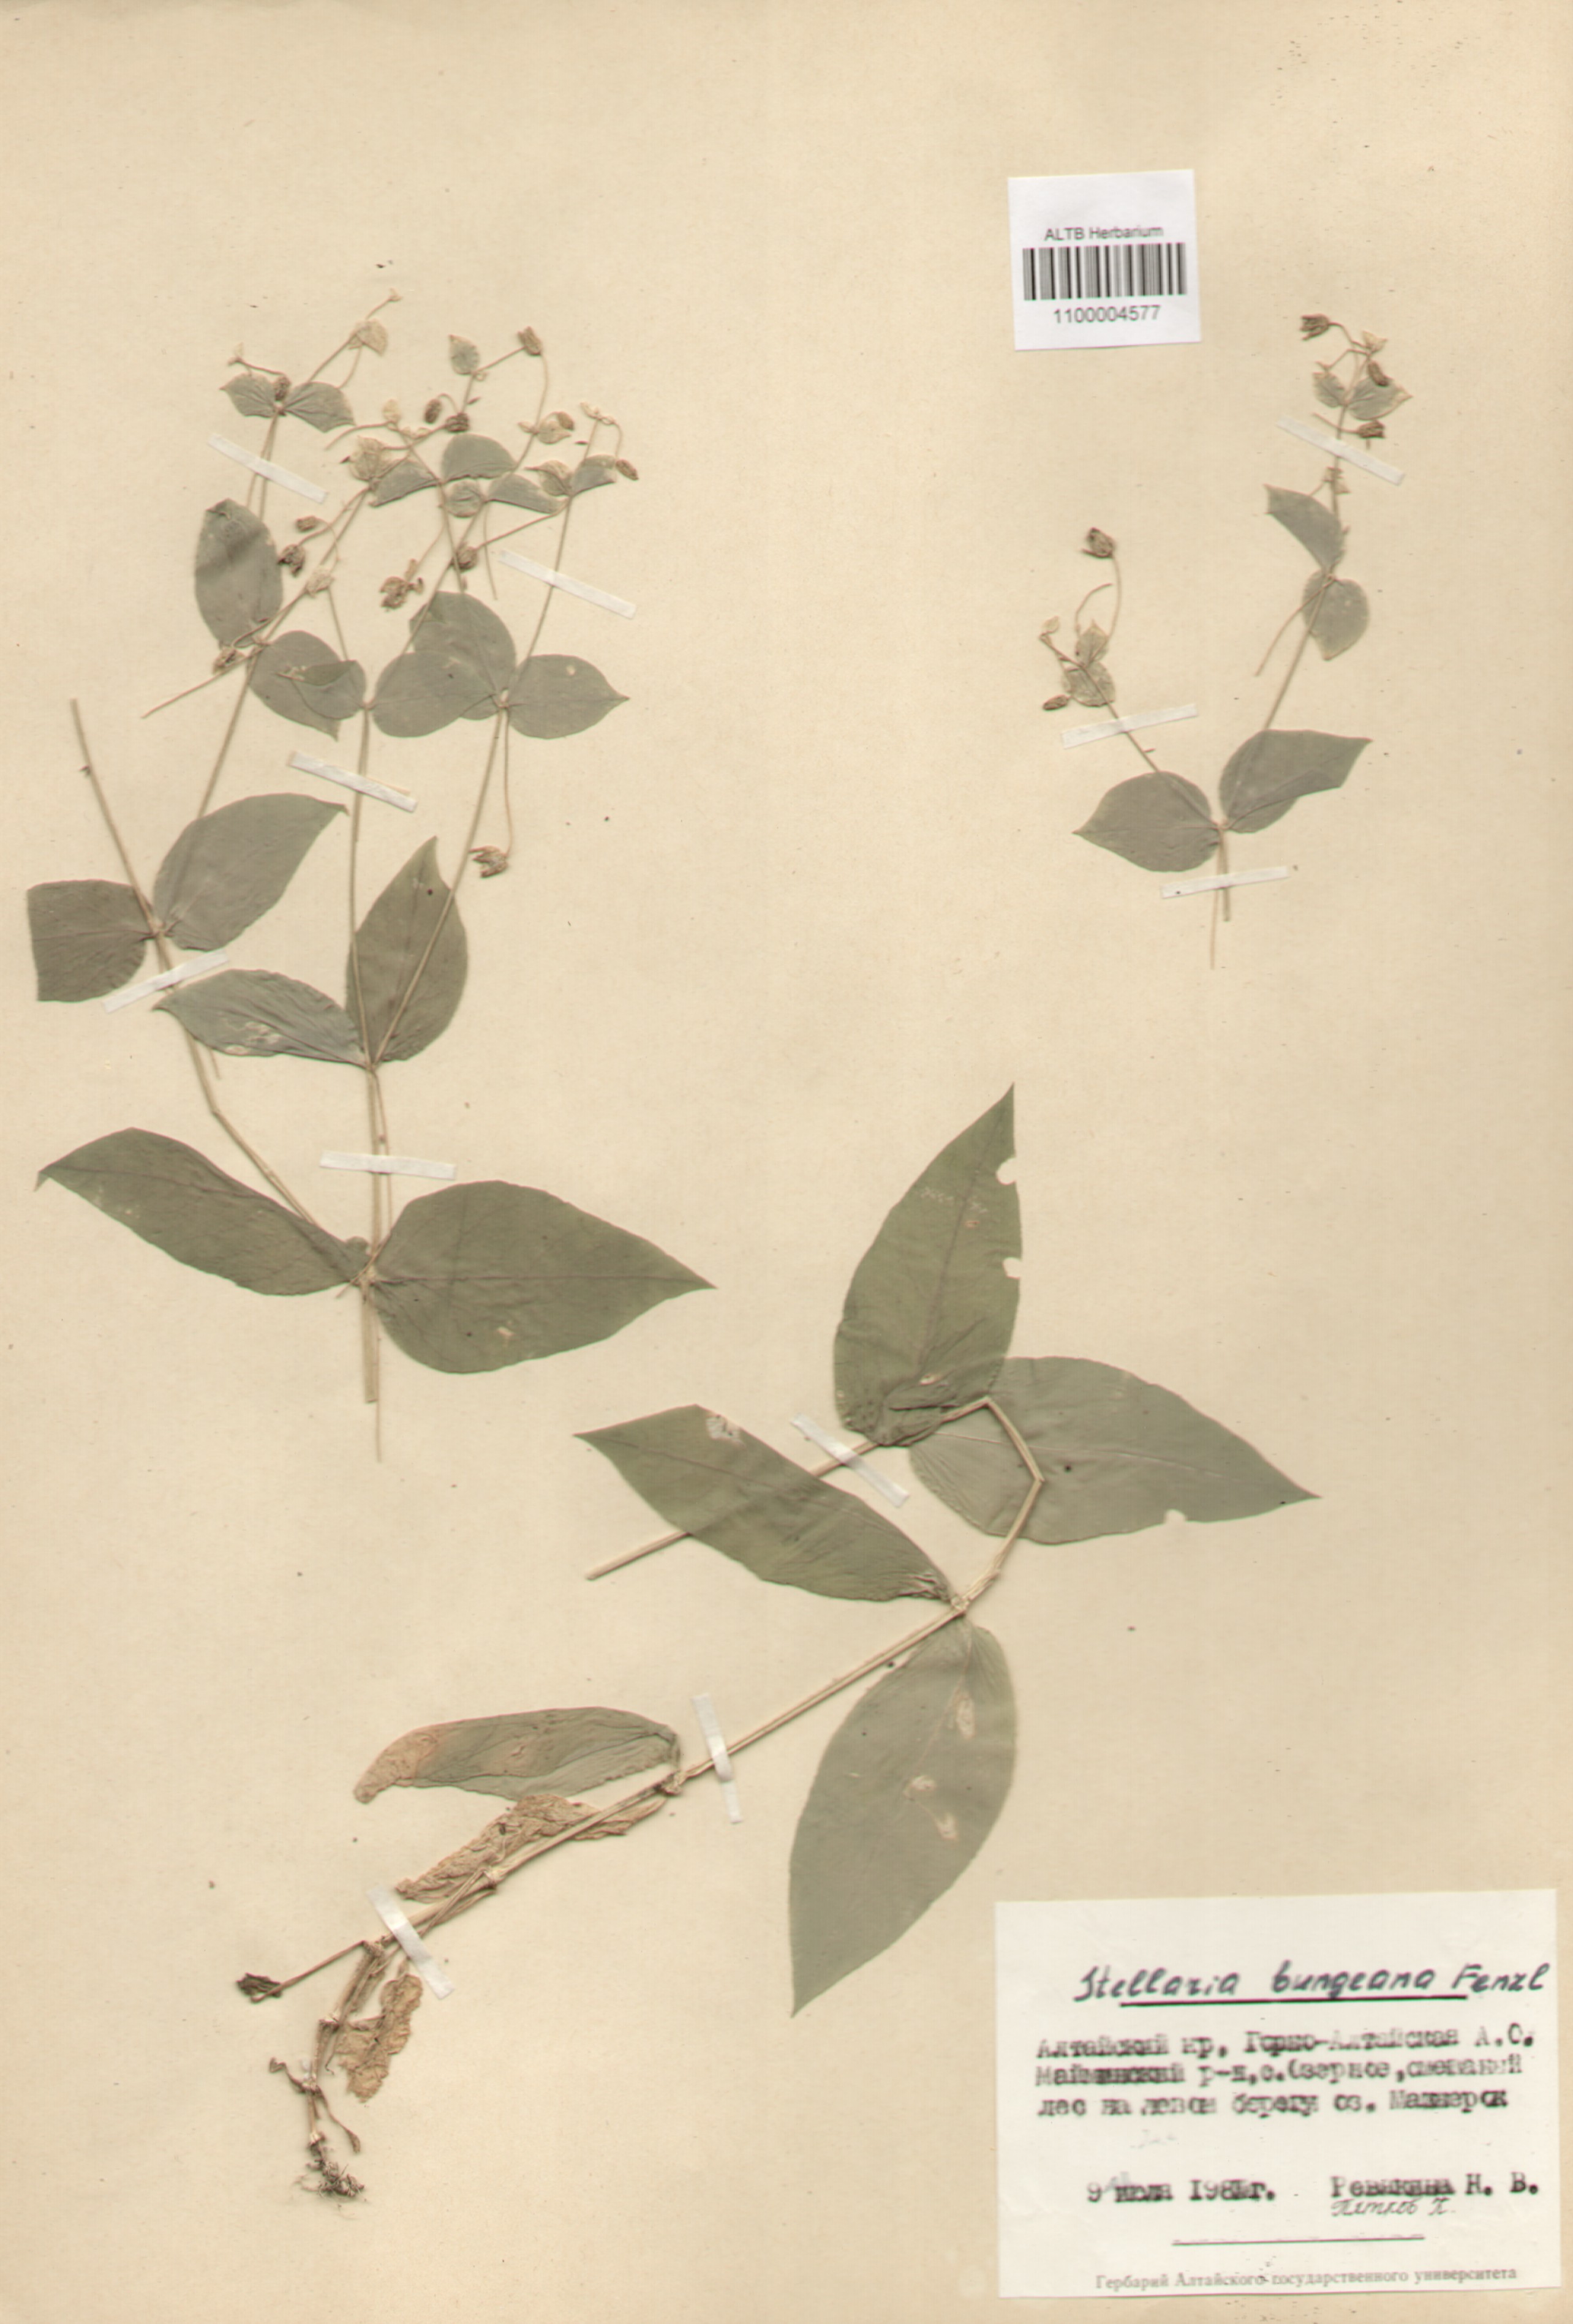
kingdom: Plantae
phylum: Tracheophyta
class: Magnoliopsida
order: Caryophyllales
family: Caryophyllaceae
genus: Stellaria
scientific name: Stellaria bungeana
